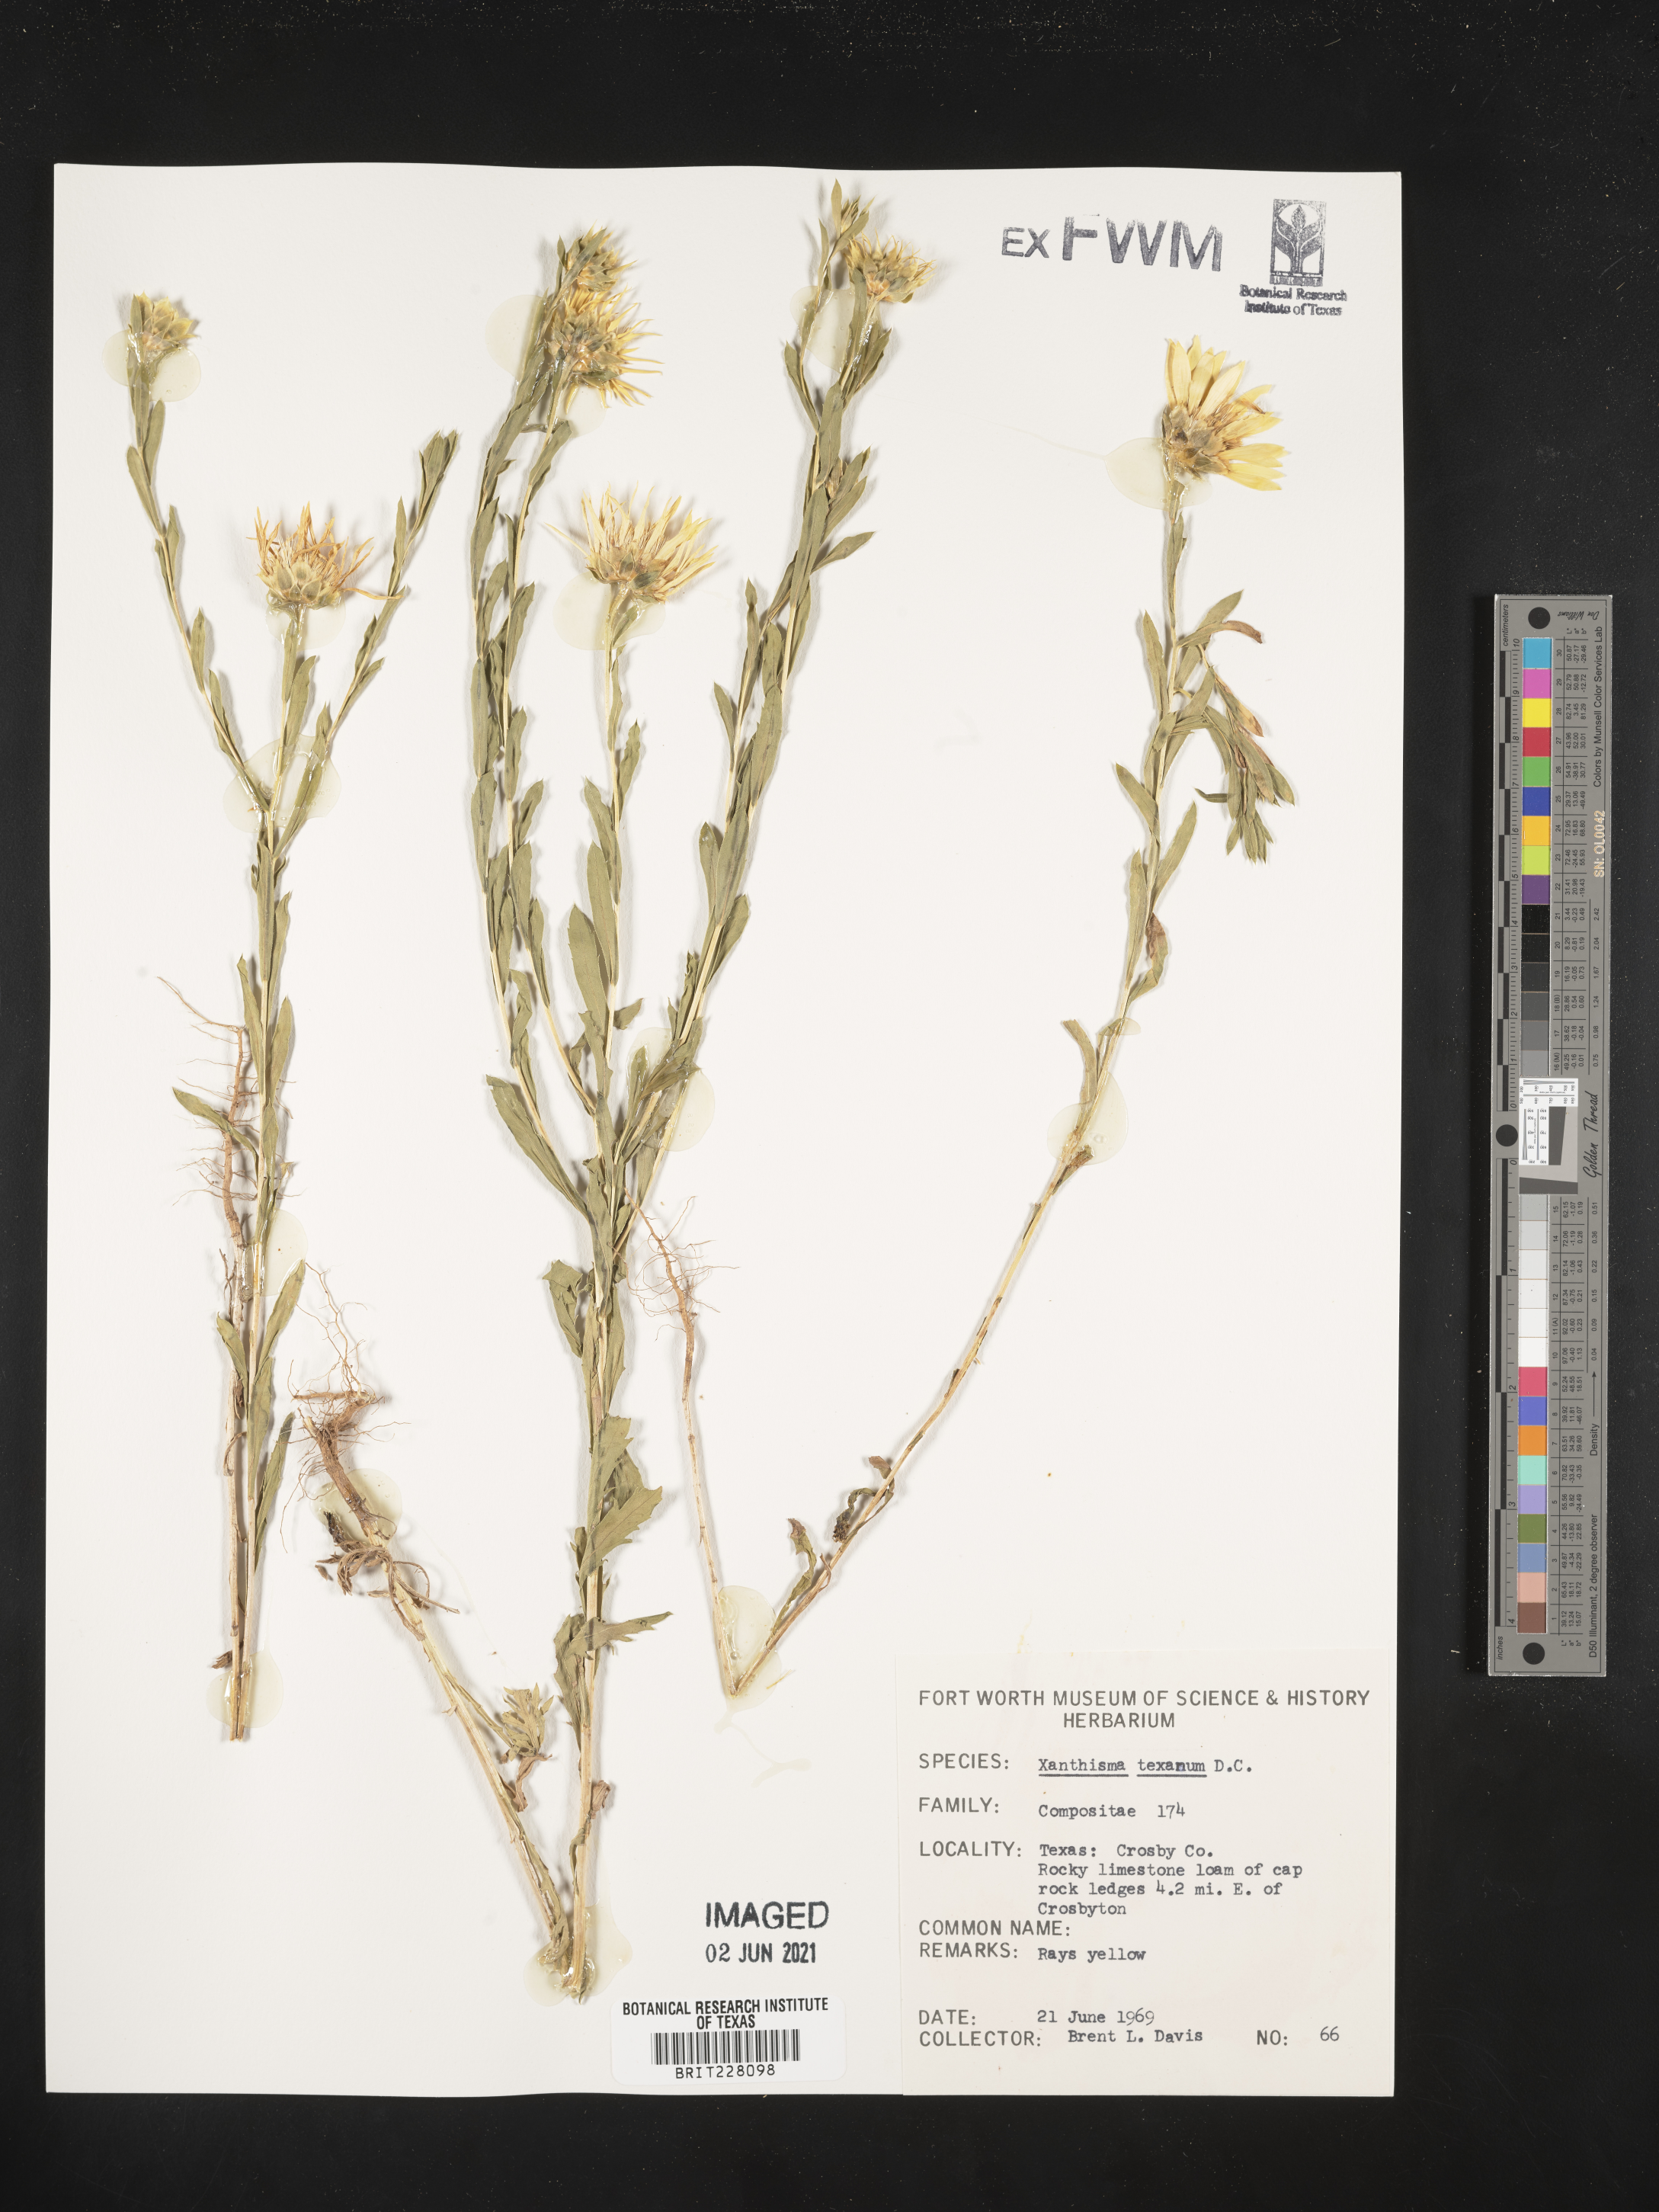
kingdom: Plantae
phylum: Tracheophyta
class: Magnoliopsida
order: Asterales
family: Asteraceae
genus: Xanthisma
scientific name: Xanthisma texanum
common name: Texas sleepy daisy
